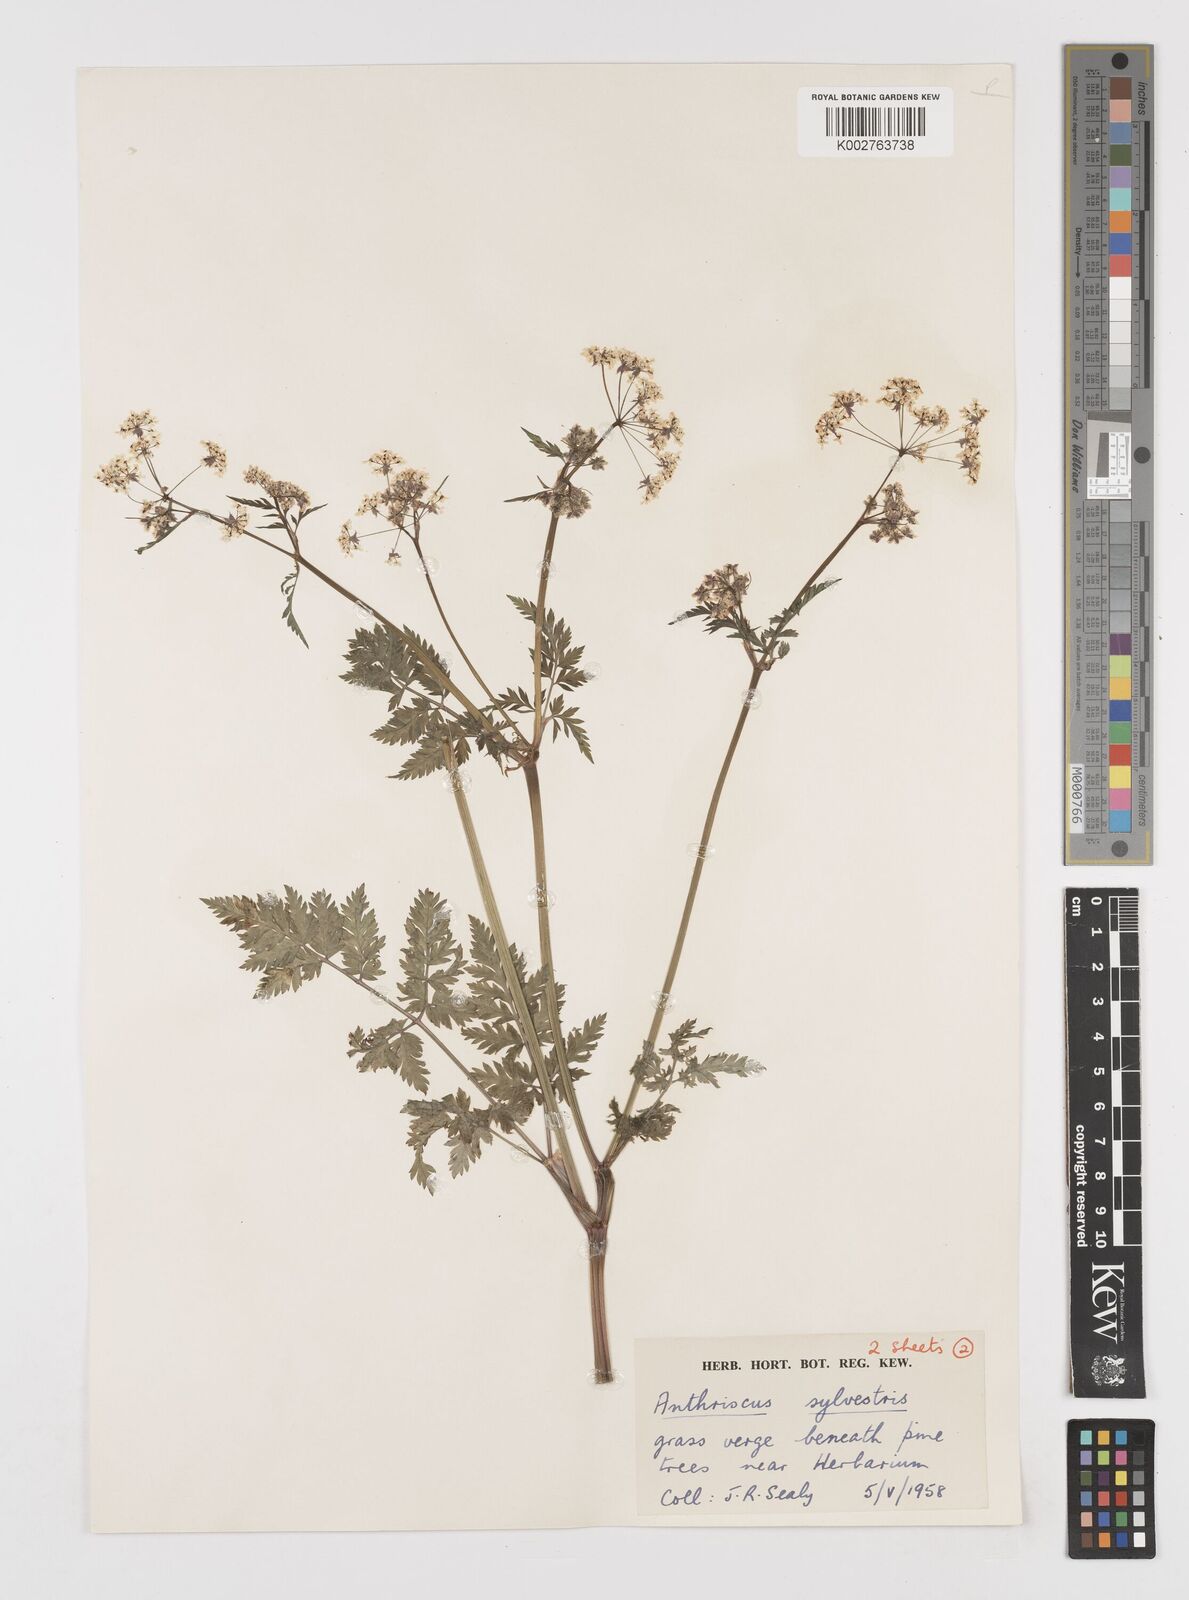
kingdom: Plantae
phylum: Tracheophyta
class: Magnoliopsida
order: Apiales
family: Apiaceae
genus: Anthriscus
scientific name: Anthriscus sylvestris
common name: Cow parsley
